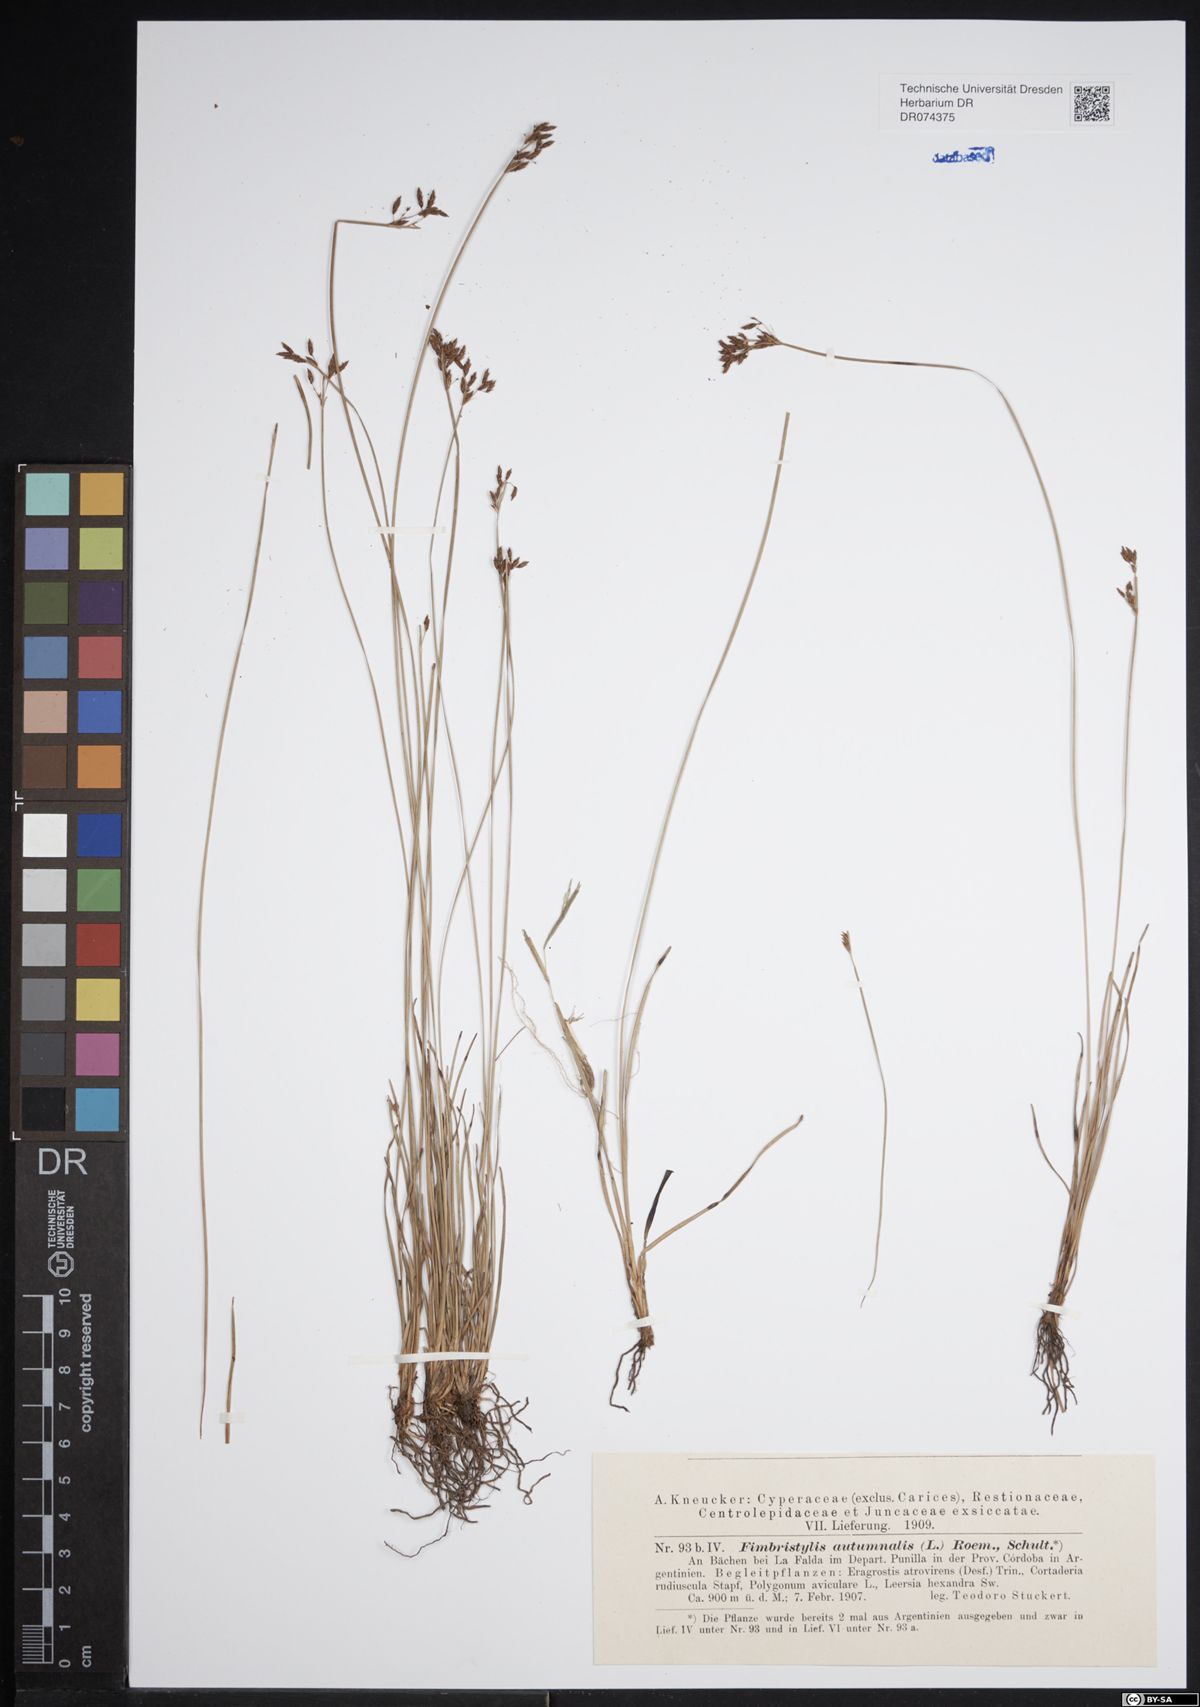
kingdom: Plantae
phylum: Tracheophyta
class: Liliopsida
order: Poales
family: Cyperaceae
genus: Fimbristylis
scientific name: Fimbristylis autumnalis
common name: Slender fimbristylis
